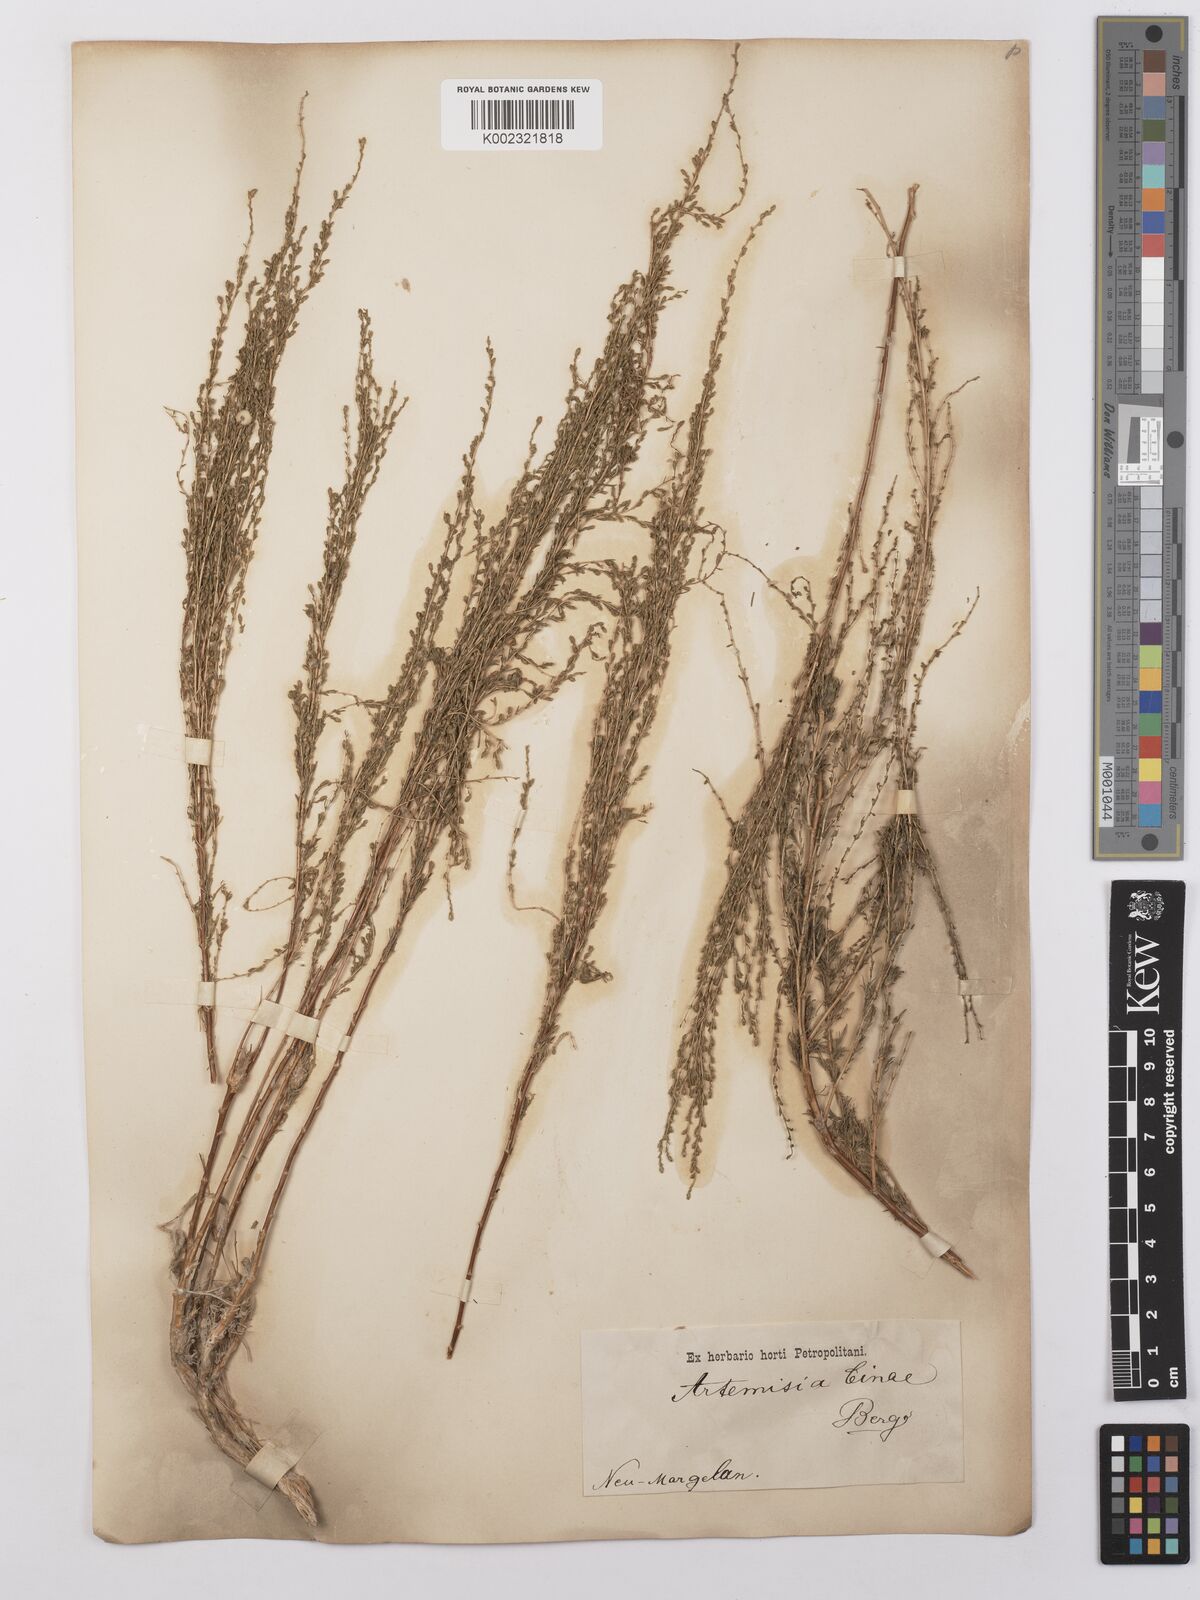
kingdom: Plantae
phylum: Tracheophyta
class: Magnoliopsida
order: Asterales
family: Asteraceae
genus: Artemisia
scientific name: Artemisia cina
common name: Levant wormseed
